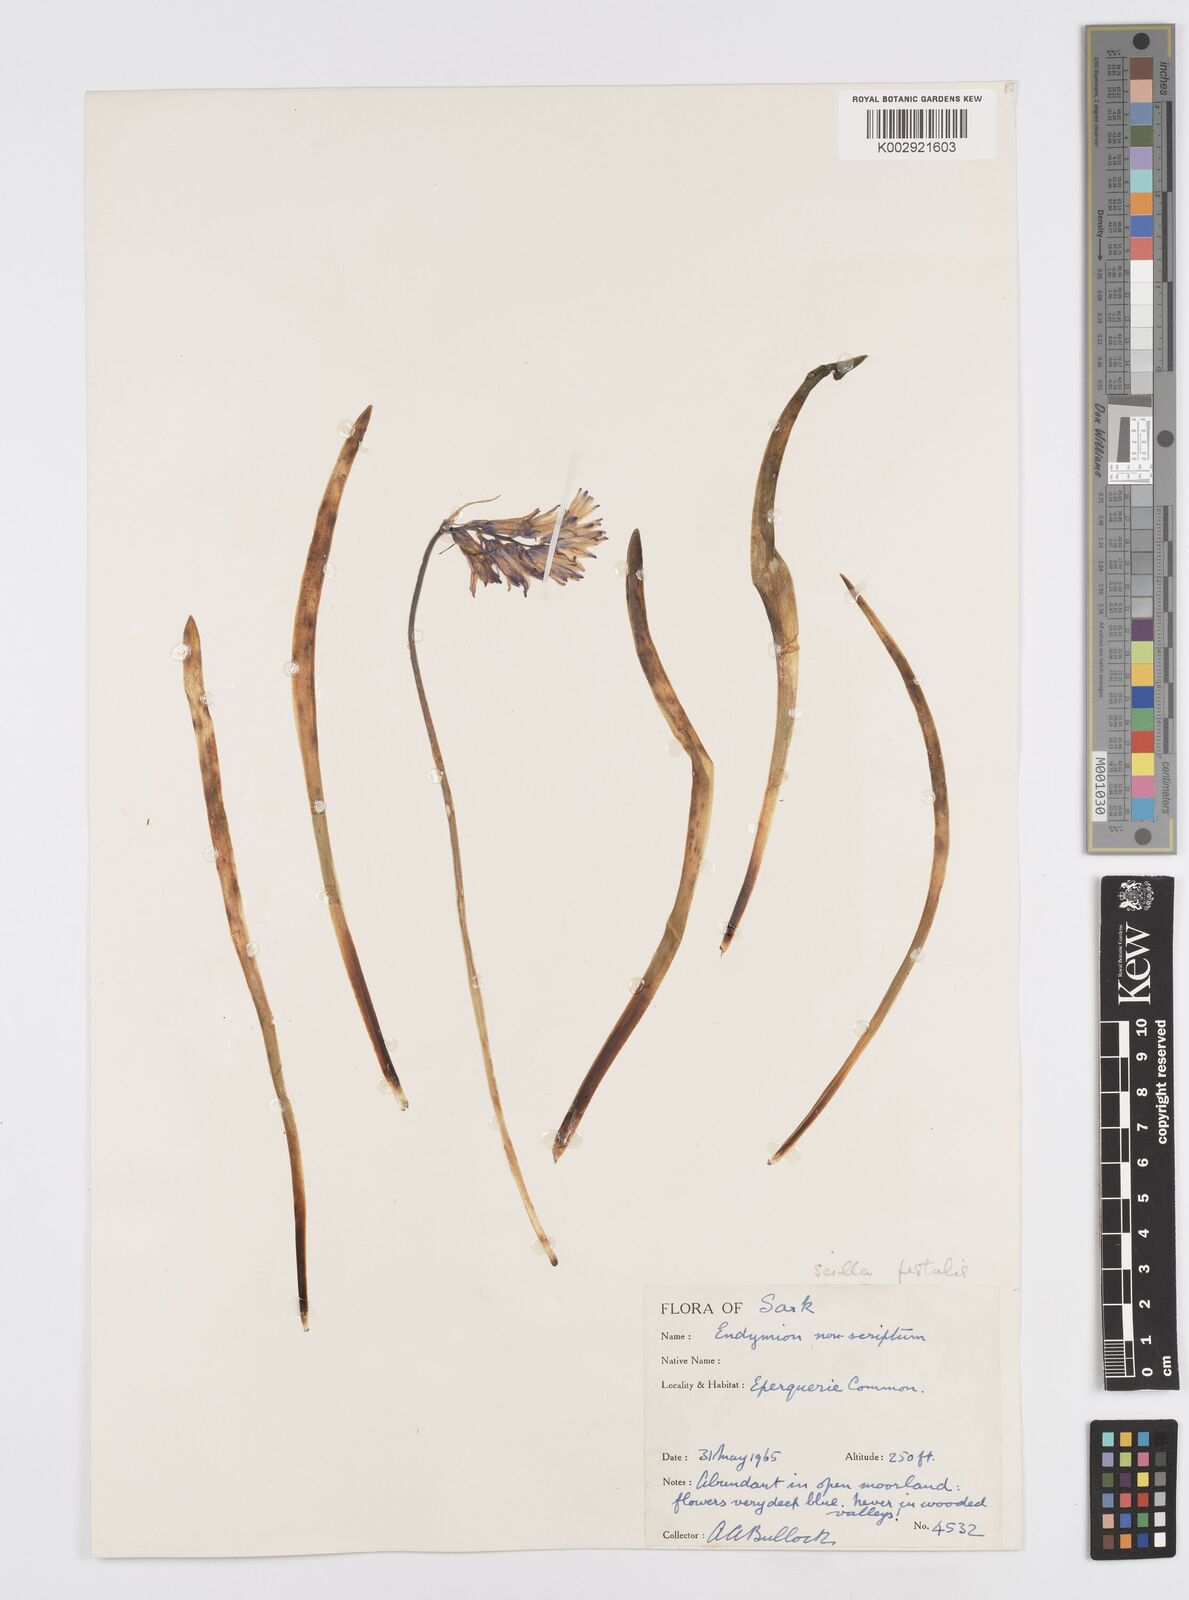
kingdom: Plantae
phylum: Tracheophyta
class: Liliopsida
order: Asparagales
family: Asparagaceae
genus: Hyacinthoides
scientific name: Hyacinthoides non-scripta
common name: Bluebell
